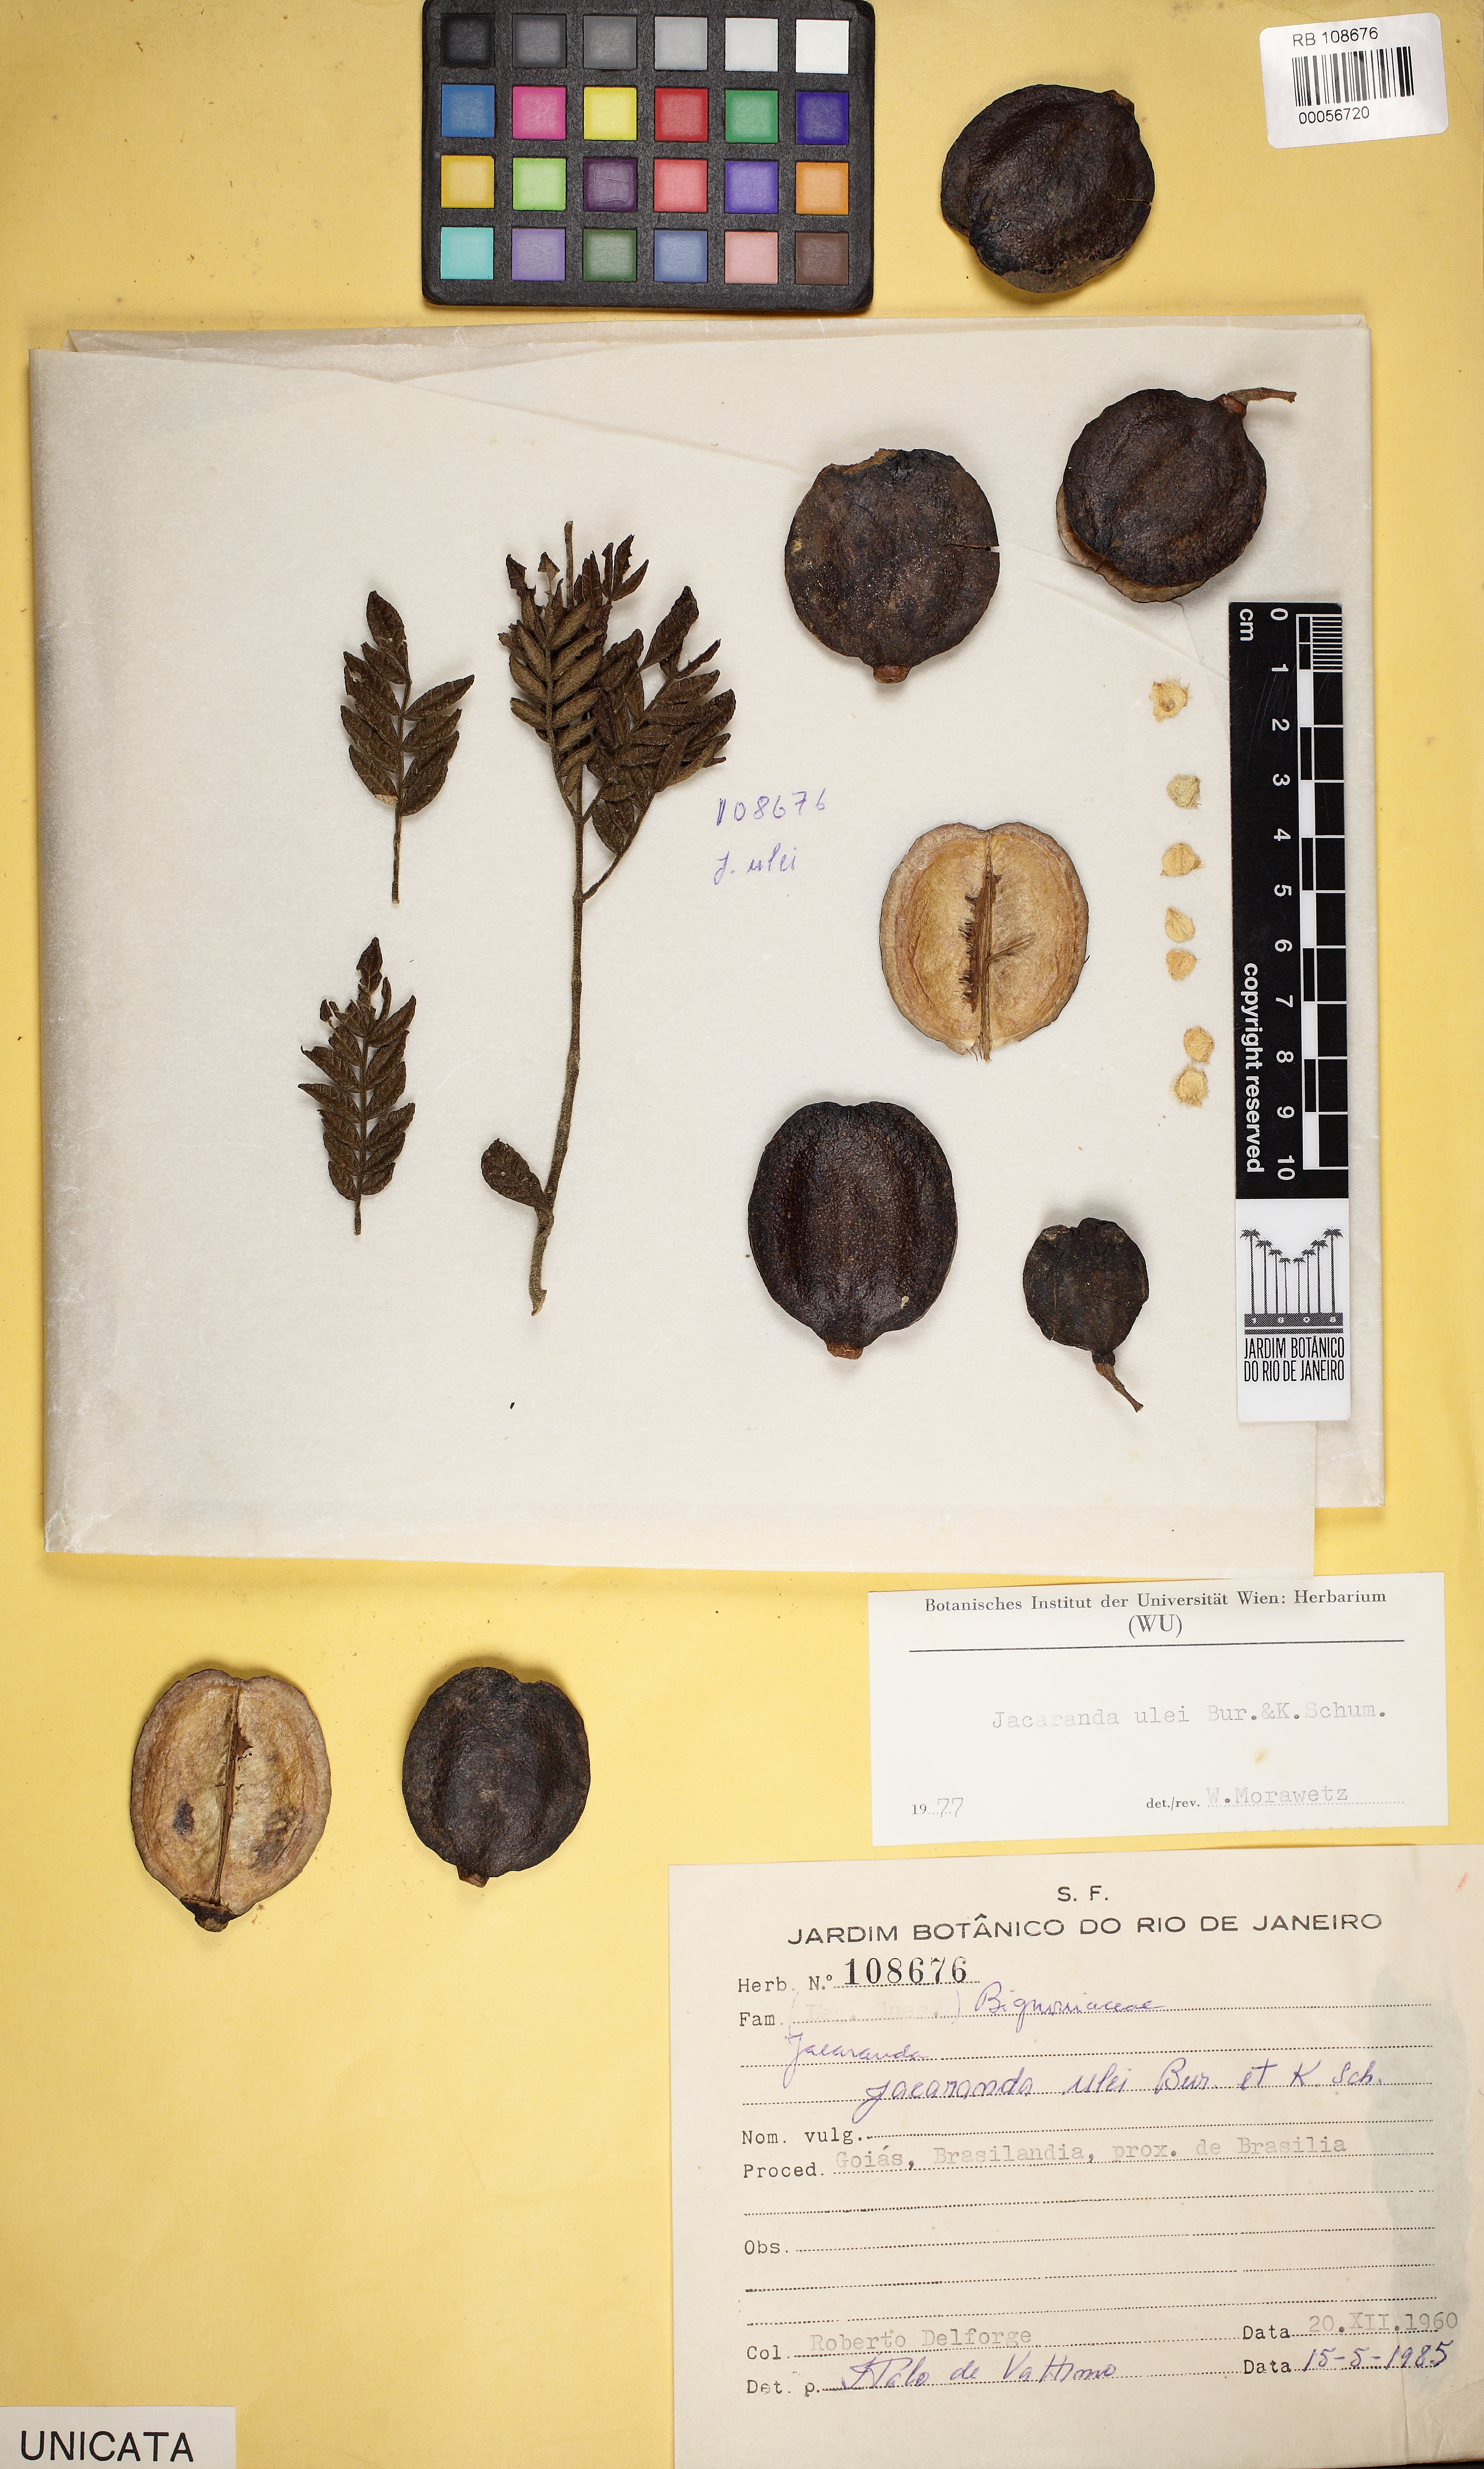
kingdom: Plantae
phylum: Tracheophyta
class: Magnoliopsida
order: Lamiales
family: Bignoniaceae
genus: Jacaranda
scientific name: Jacaranda ulei
